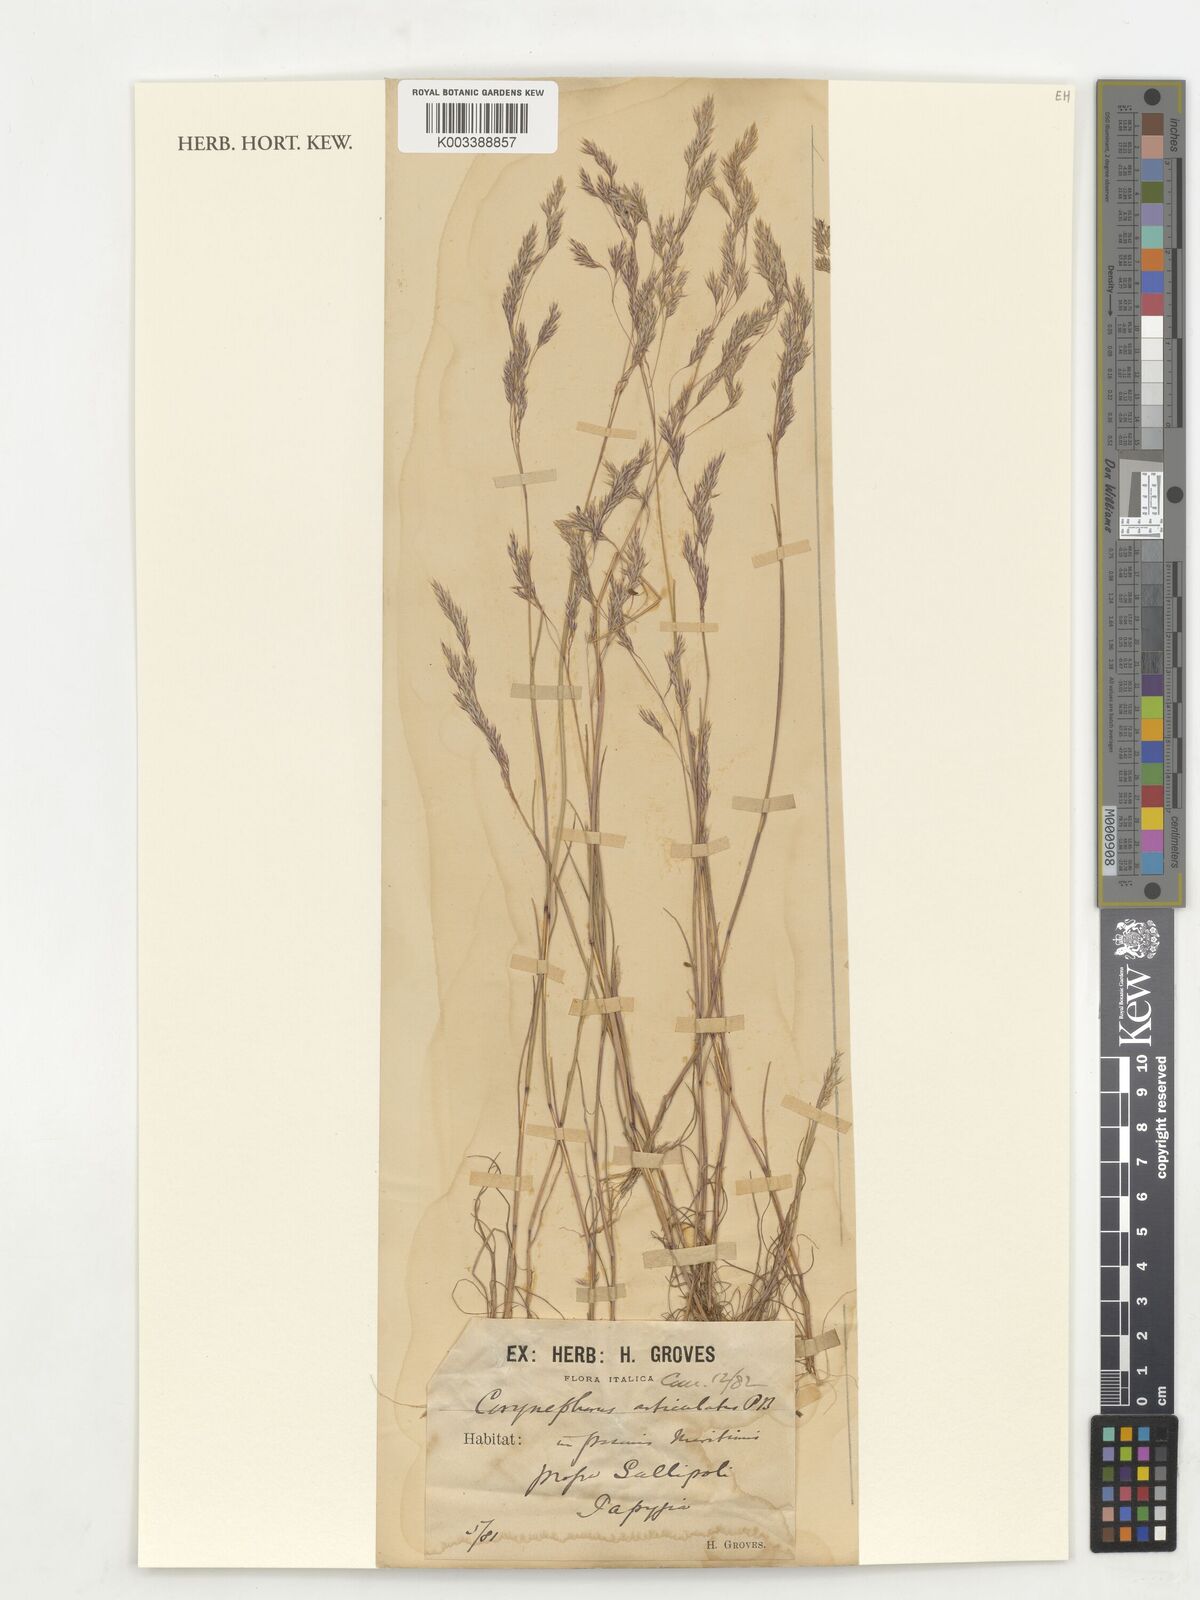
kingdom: Plantae
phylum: Tracheophyta
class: Liliopsida
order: Poales
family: Poaceae
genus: Corynephorus
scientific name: Corynephorus divaricatus
